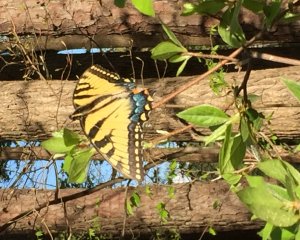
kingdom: Animalia
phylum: Arthropoda
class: Insecta
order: Lepidoptera
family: Papilionidae
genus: Pterourus
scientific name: Pterourus glaucus
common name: Eastern Tiger Swallowtail
